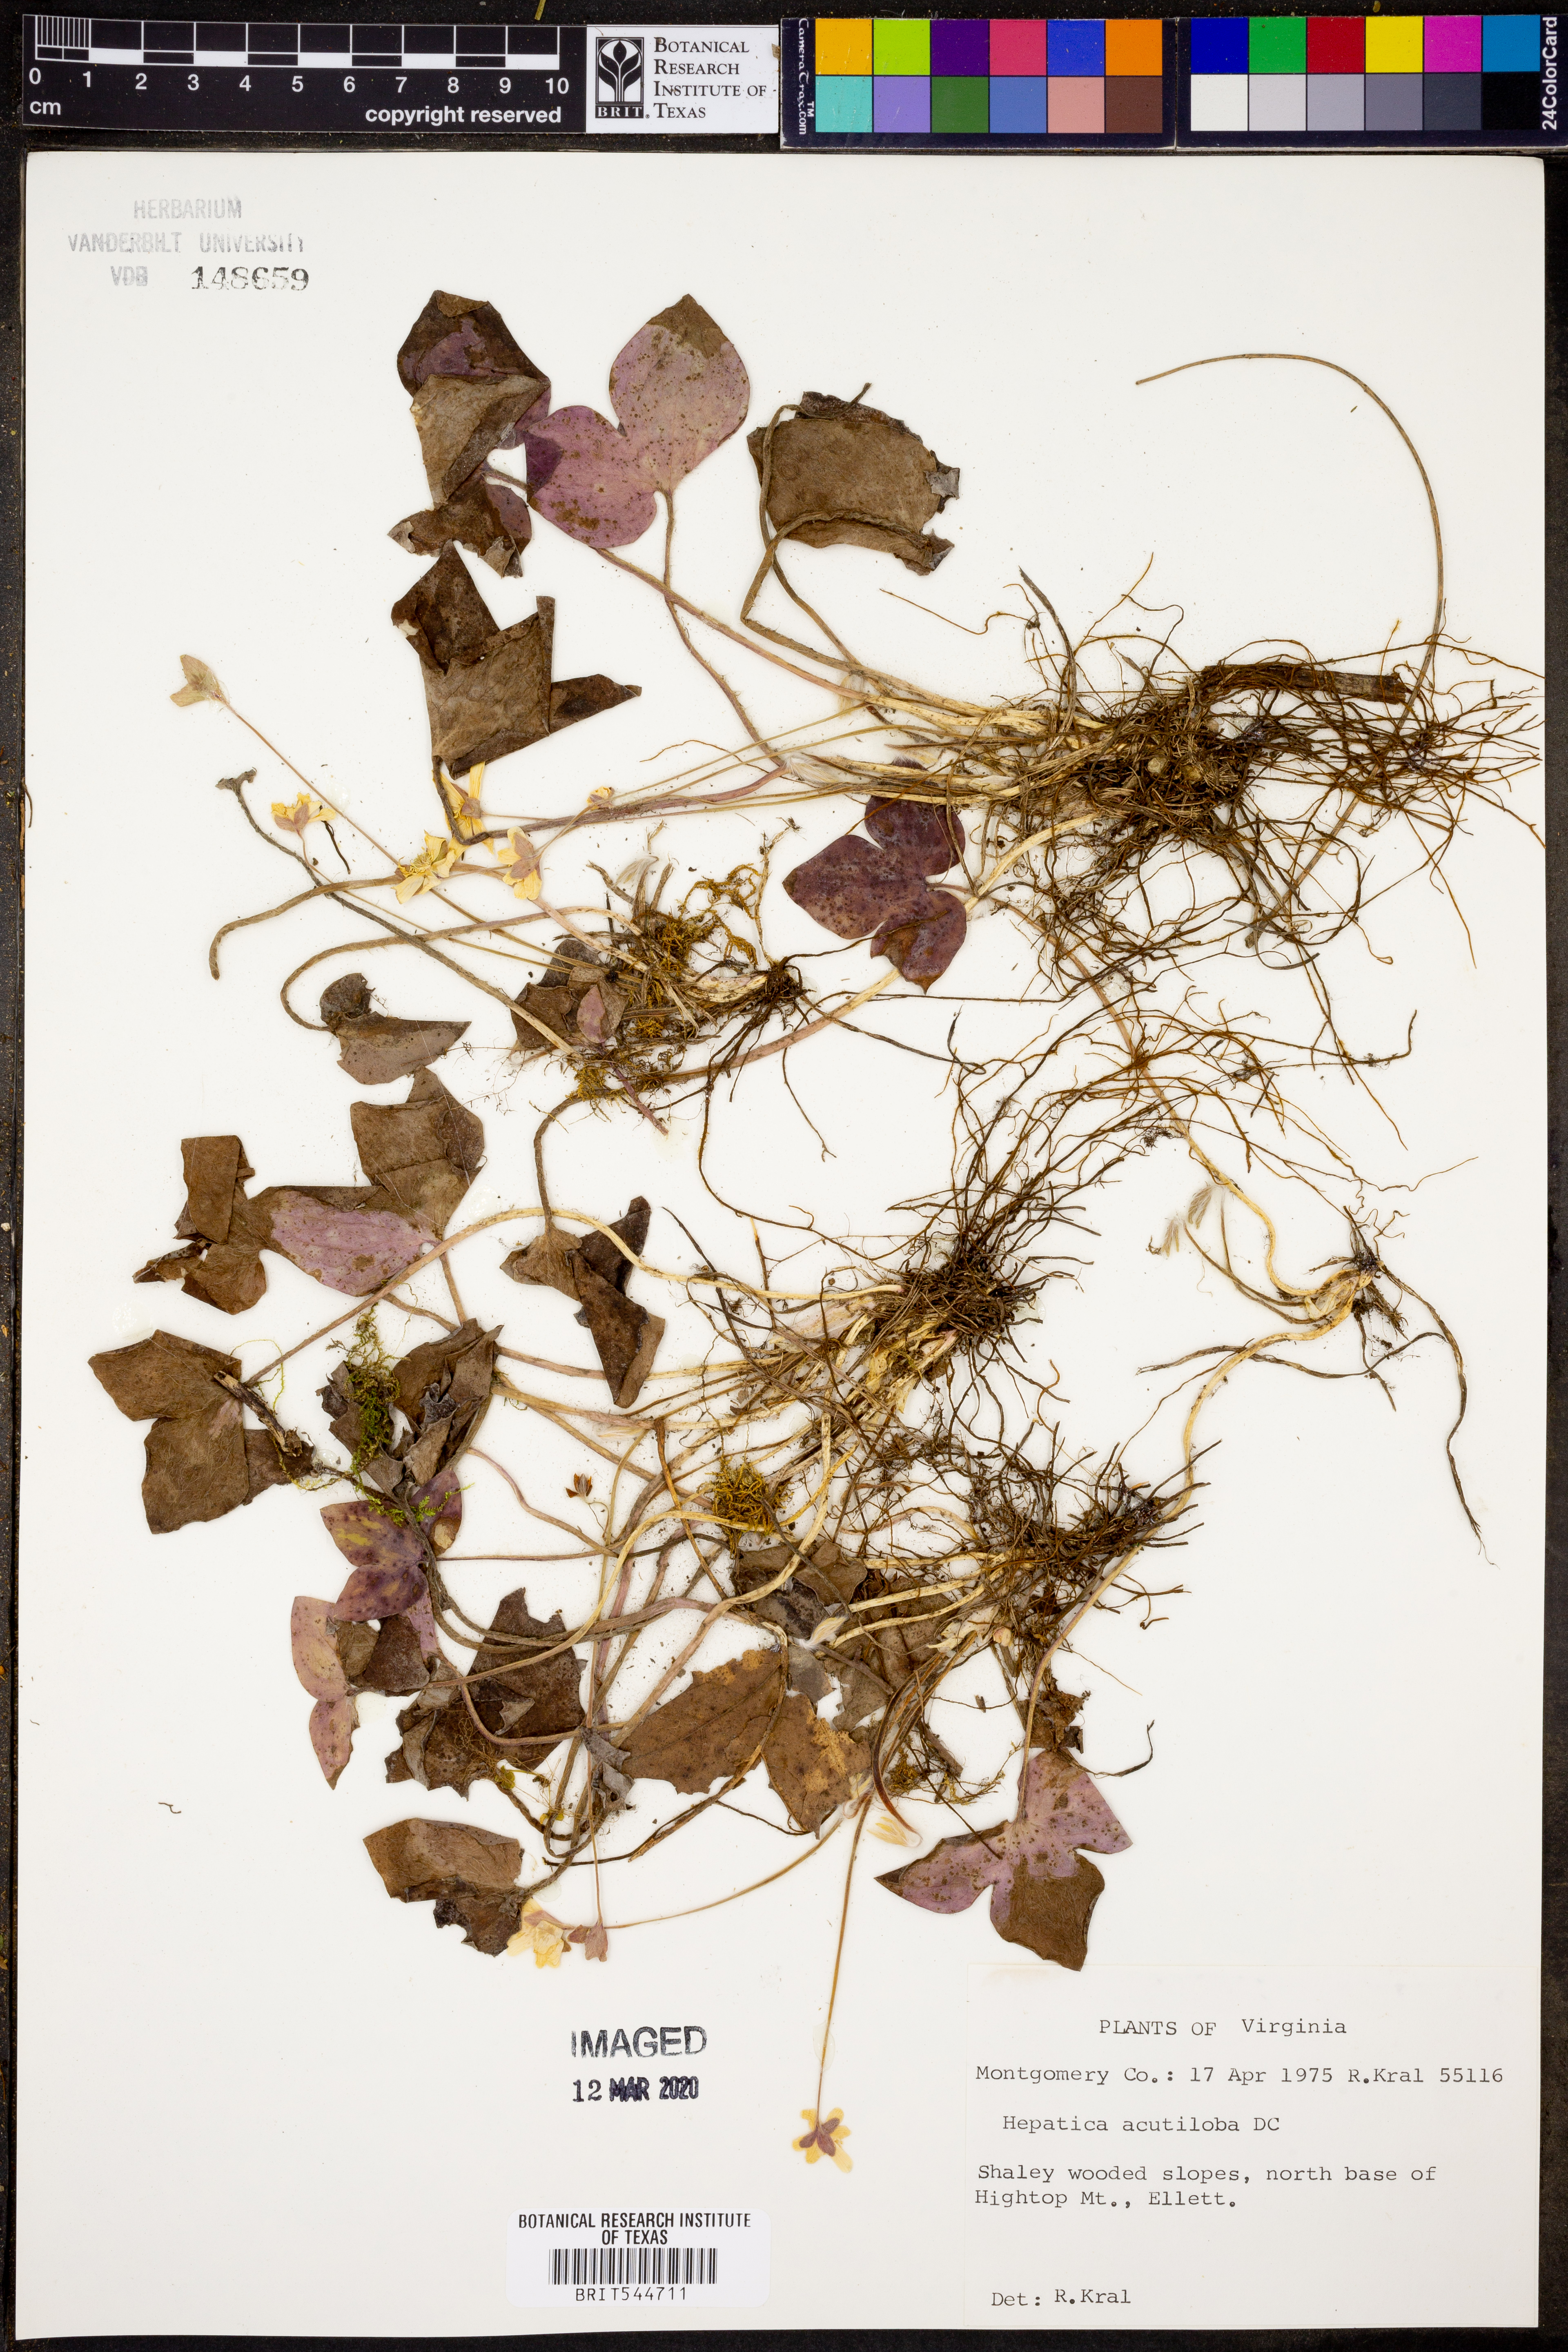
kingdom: Plantae
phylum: Tracheophyta
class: Magnoliopsida
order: Ranunculales
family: Ranunculaceae
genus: Hepatica
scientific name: Hepatica acutiloba
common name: Sharp-lobed hepatica
